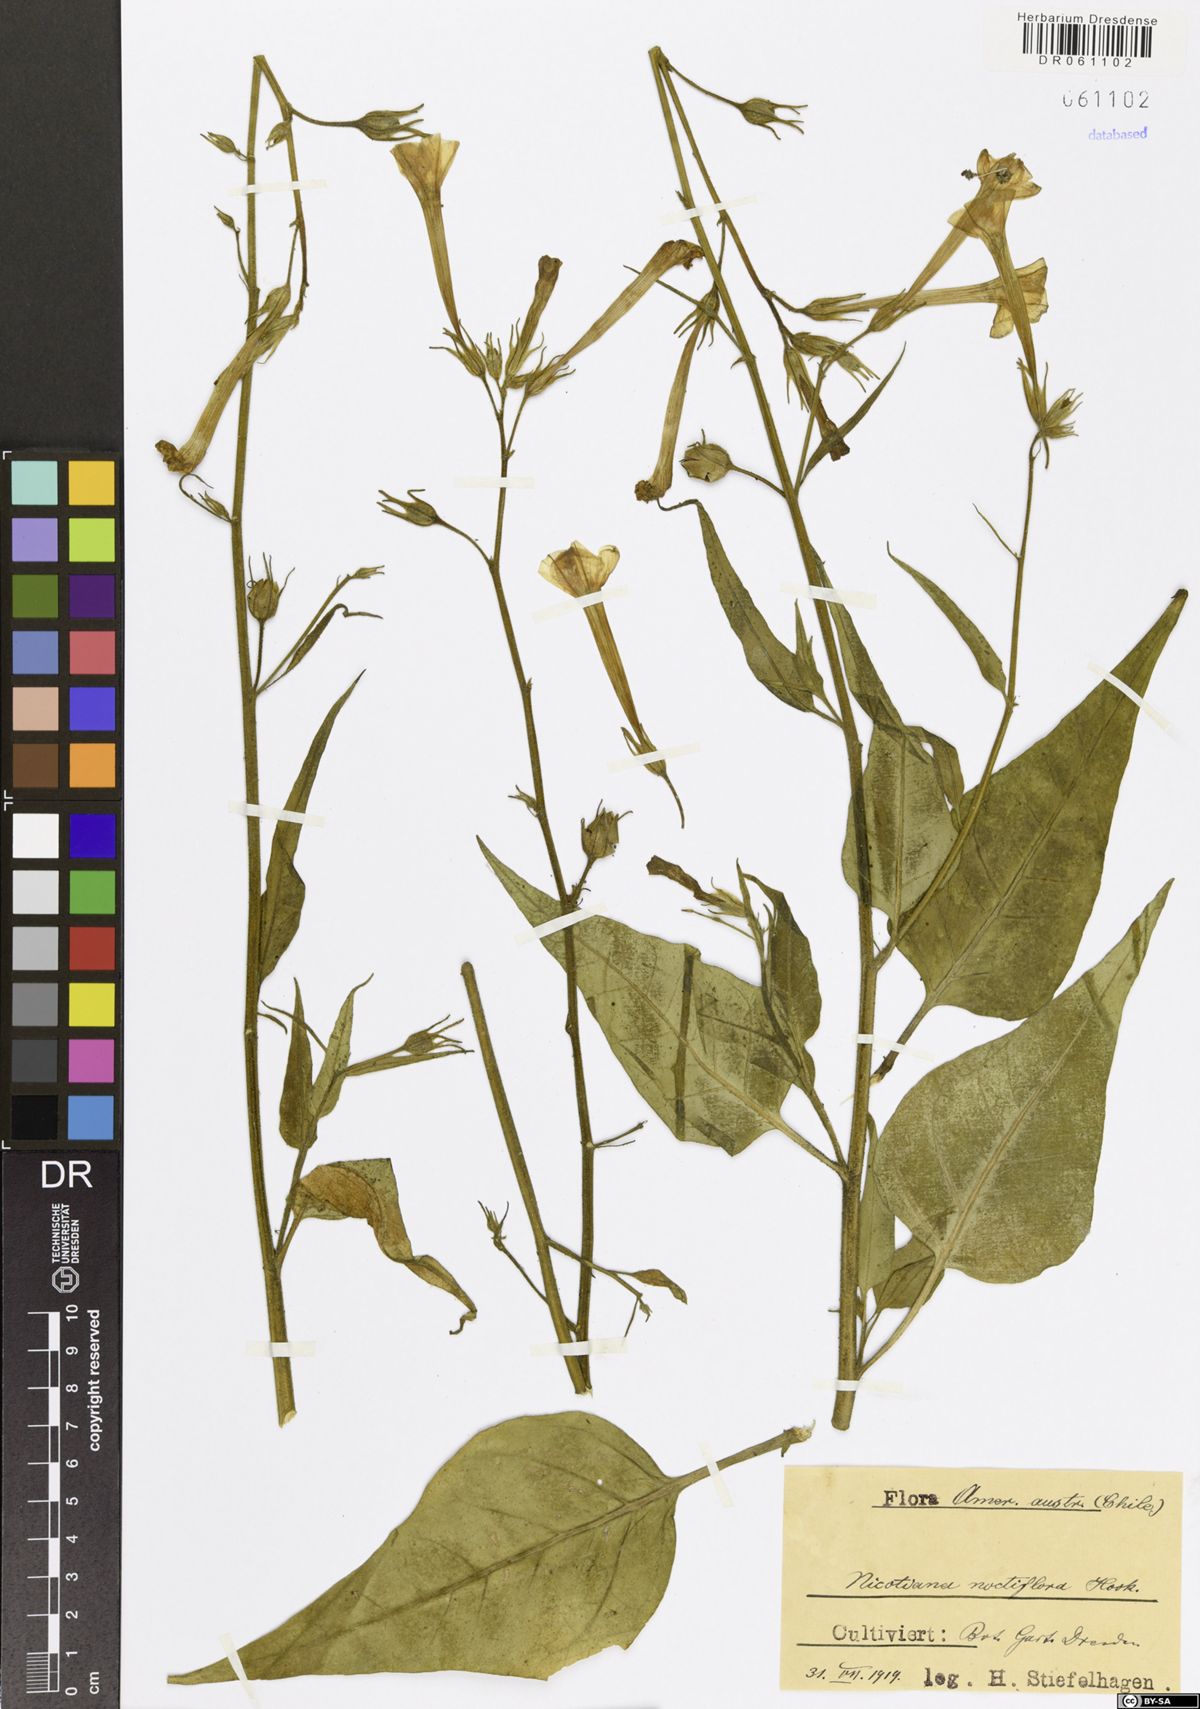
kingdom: Plantae
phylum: Tracheophyta
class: Magnoliopsida
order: Solanales
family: Solanaceae
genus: Nicotiana
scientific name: Nicotiana noctiflora
